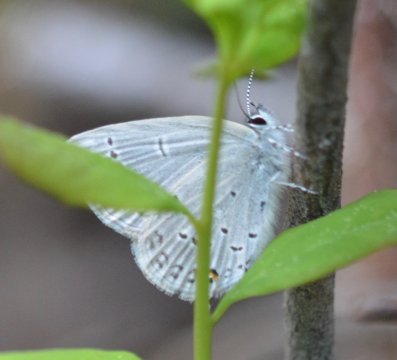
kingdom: Animalia
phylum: Arthropoda
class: Insecta
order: Lepidoptera
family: Lycaenidae
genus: Elkalyce
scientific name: Elkalyce amyntula
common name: Western Tailed-Blue
